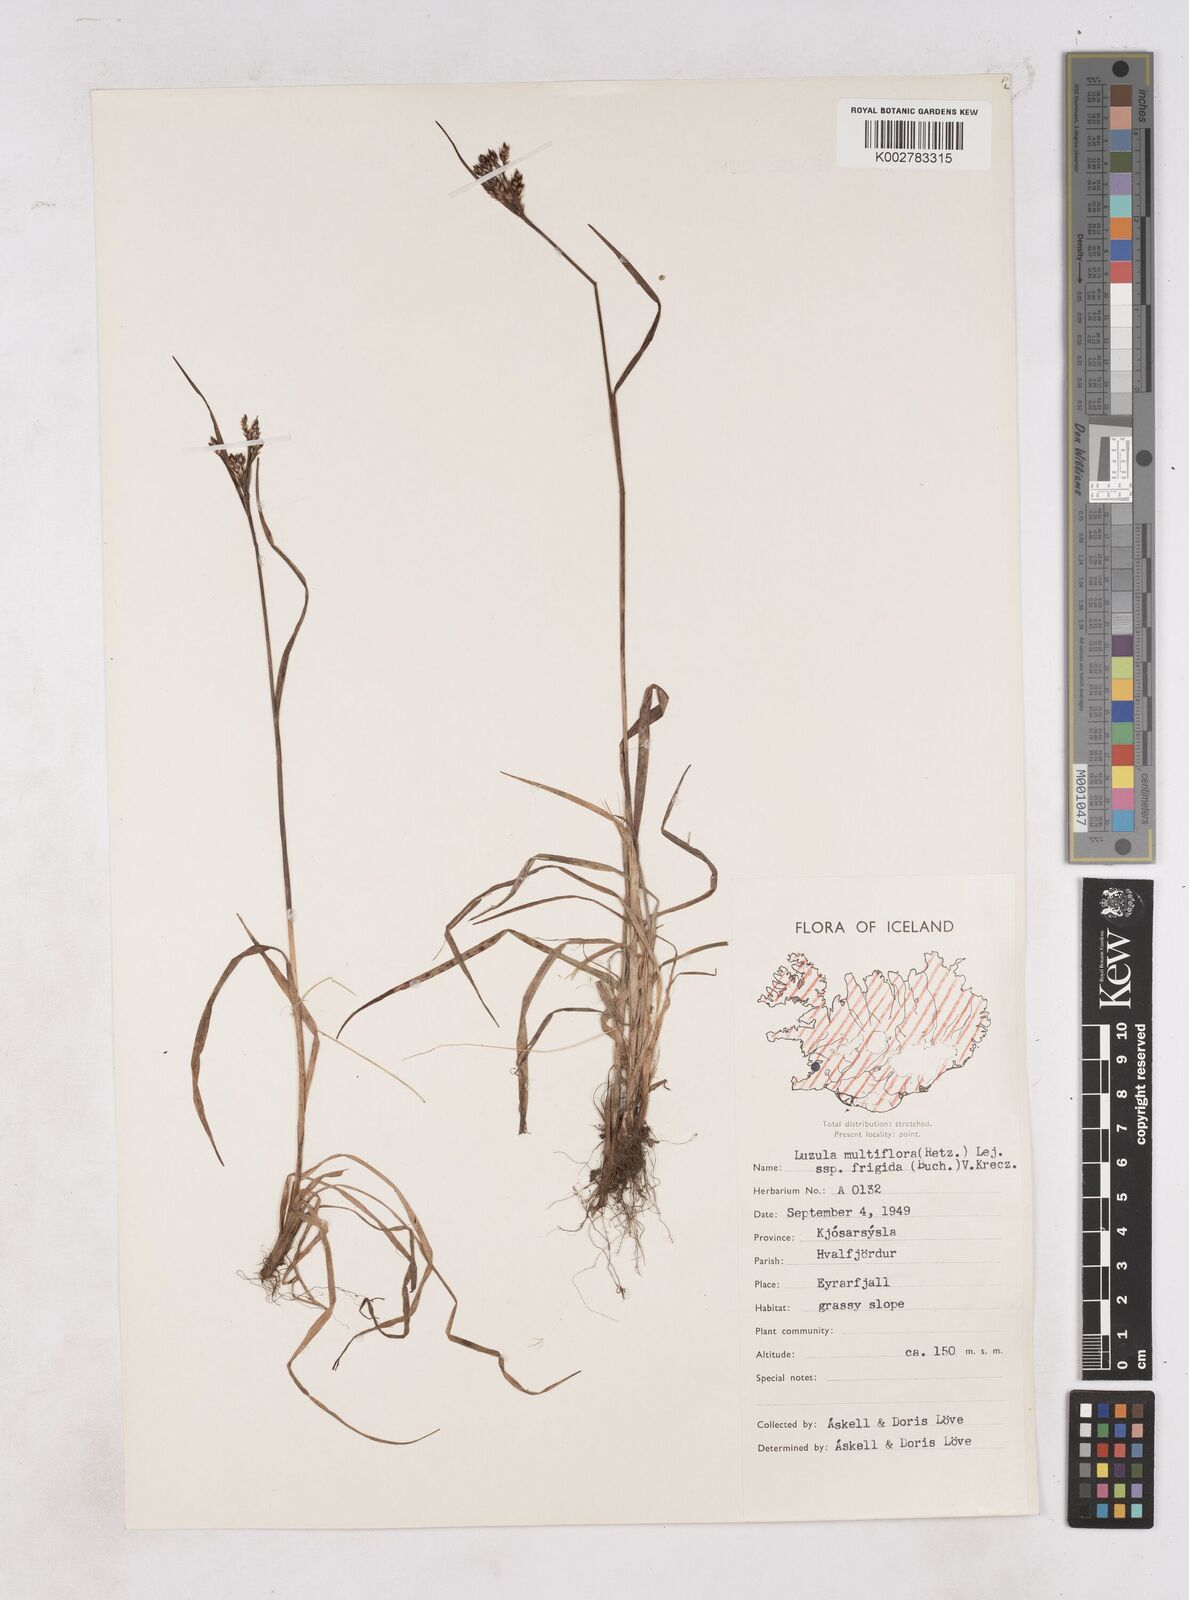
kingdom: Plantae
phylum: Tracheophyta
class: Liliopsida
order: Poales
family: Juncaceae
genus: Luzula
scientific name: Luzula multiflora
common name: Heath wood-rush
